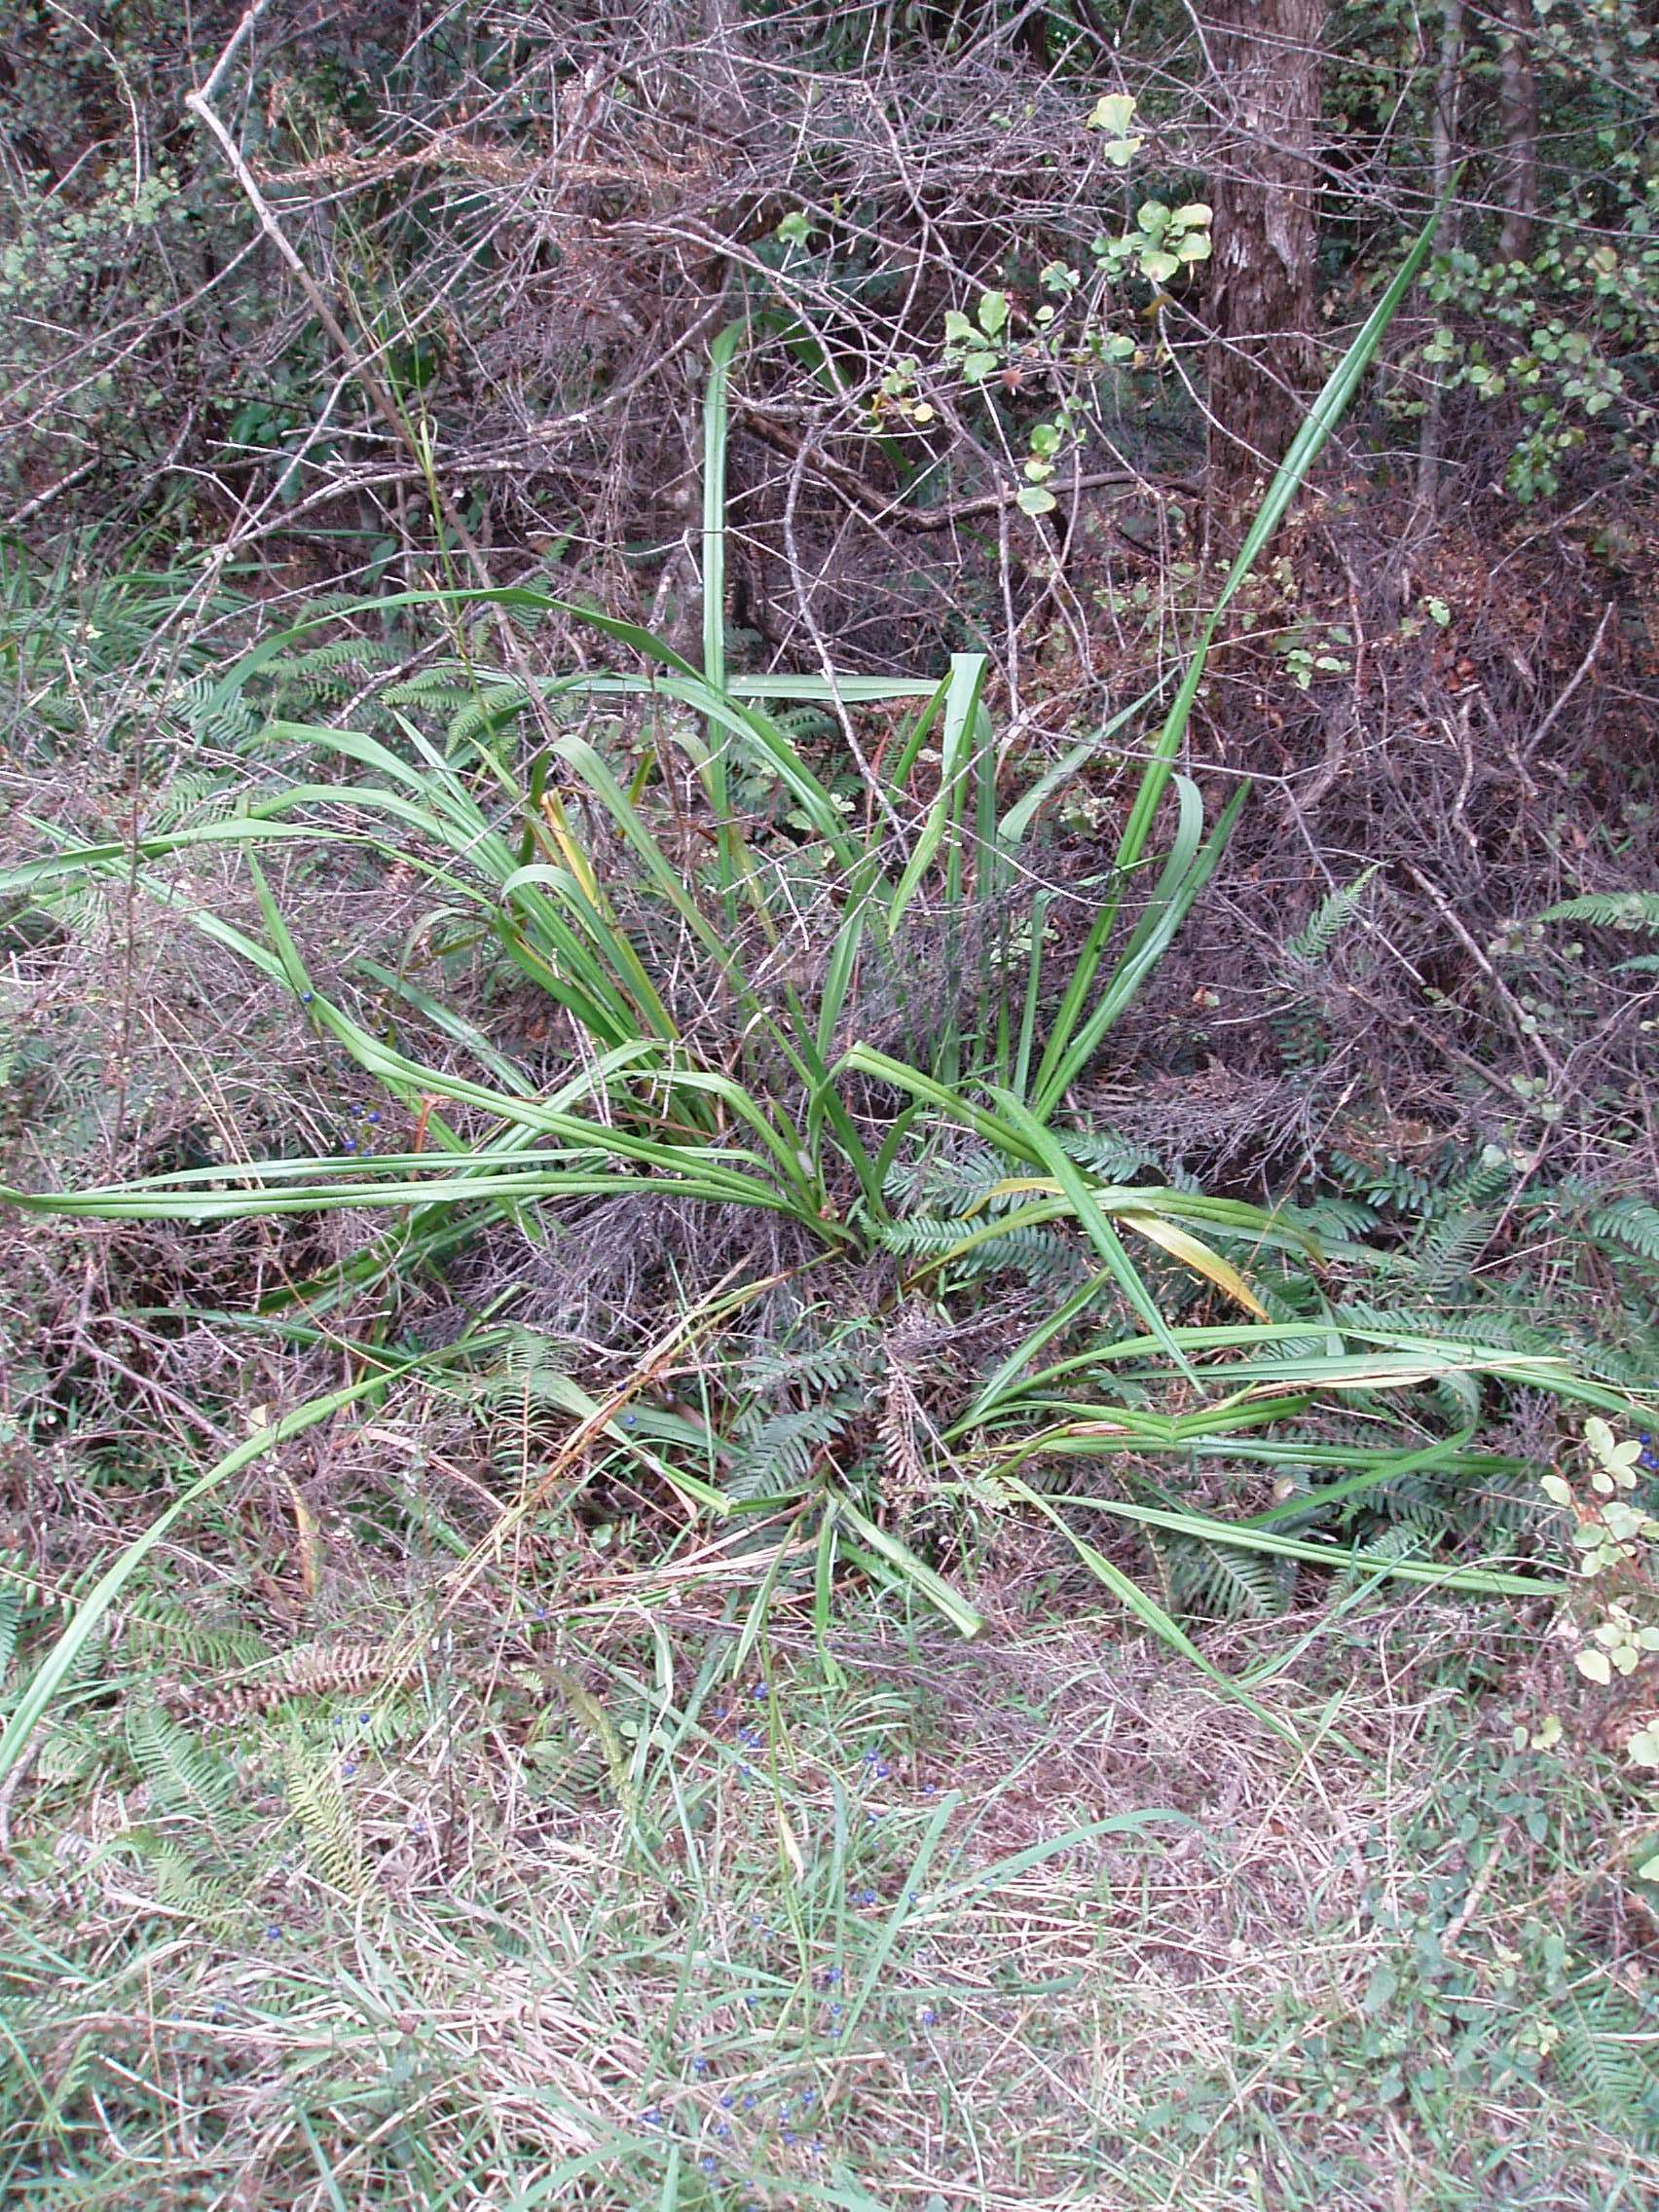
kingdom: Plantae
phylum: Tracheophyta
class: Liliopsida
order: Asparagales
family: Asphodelaceae
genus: Dianella
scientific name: Dianella latissima
